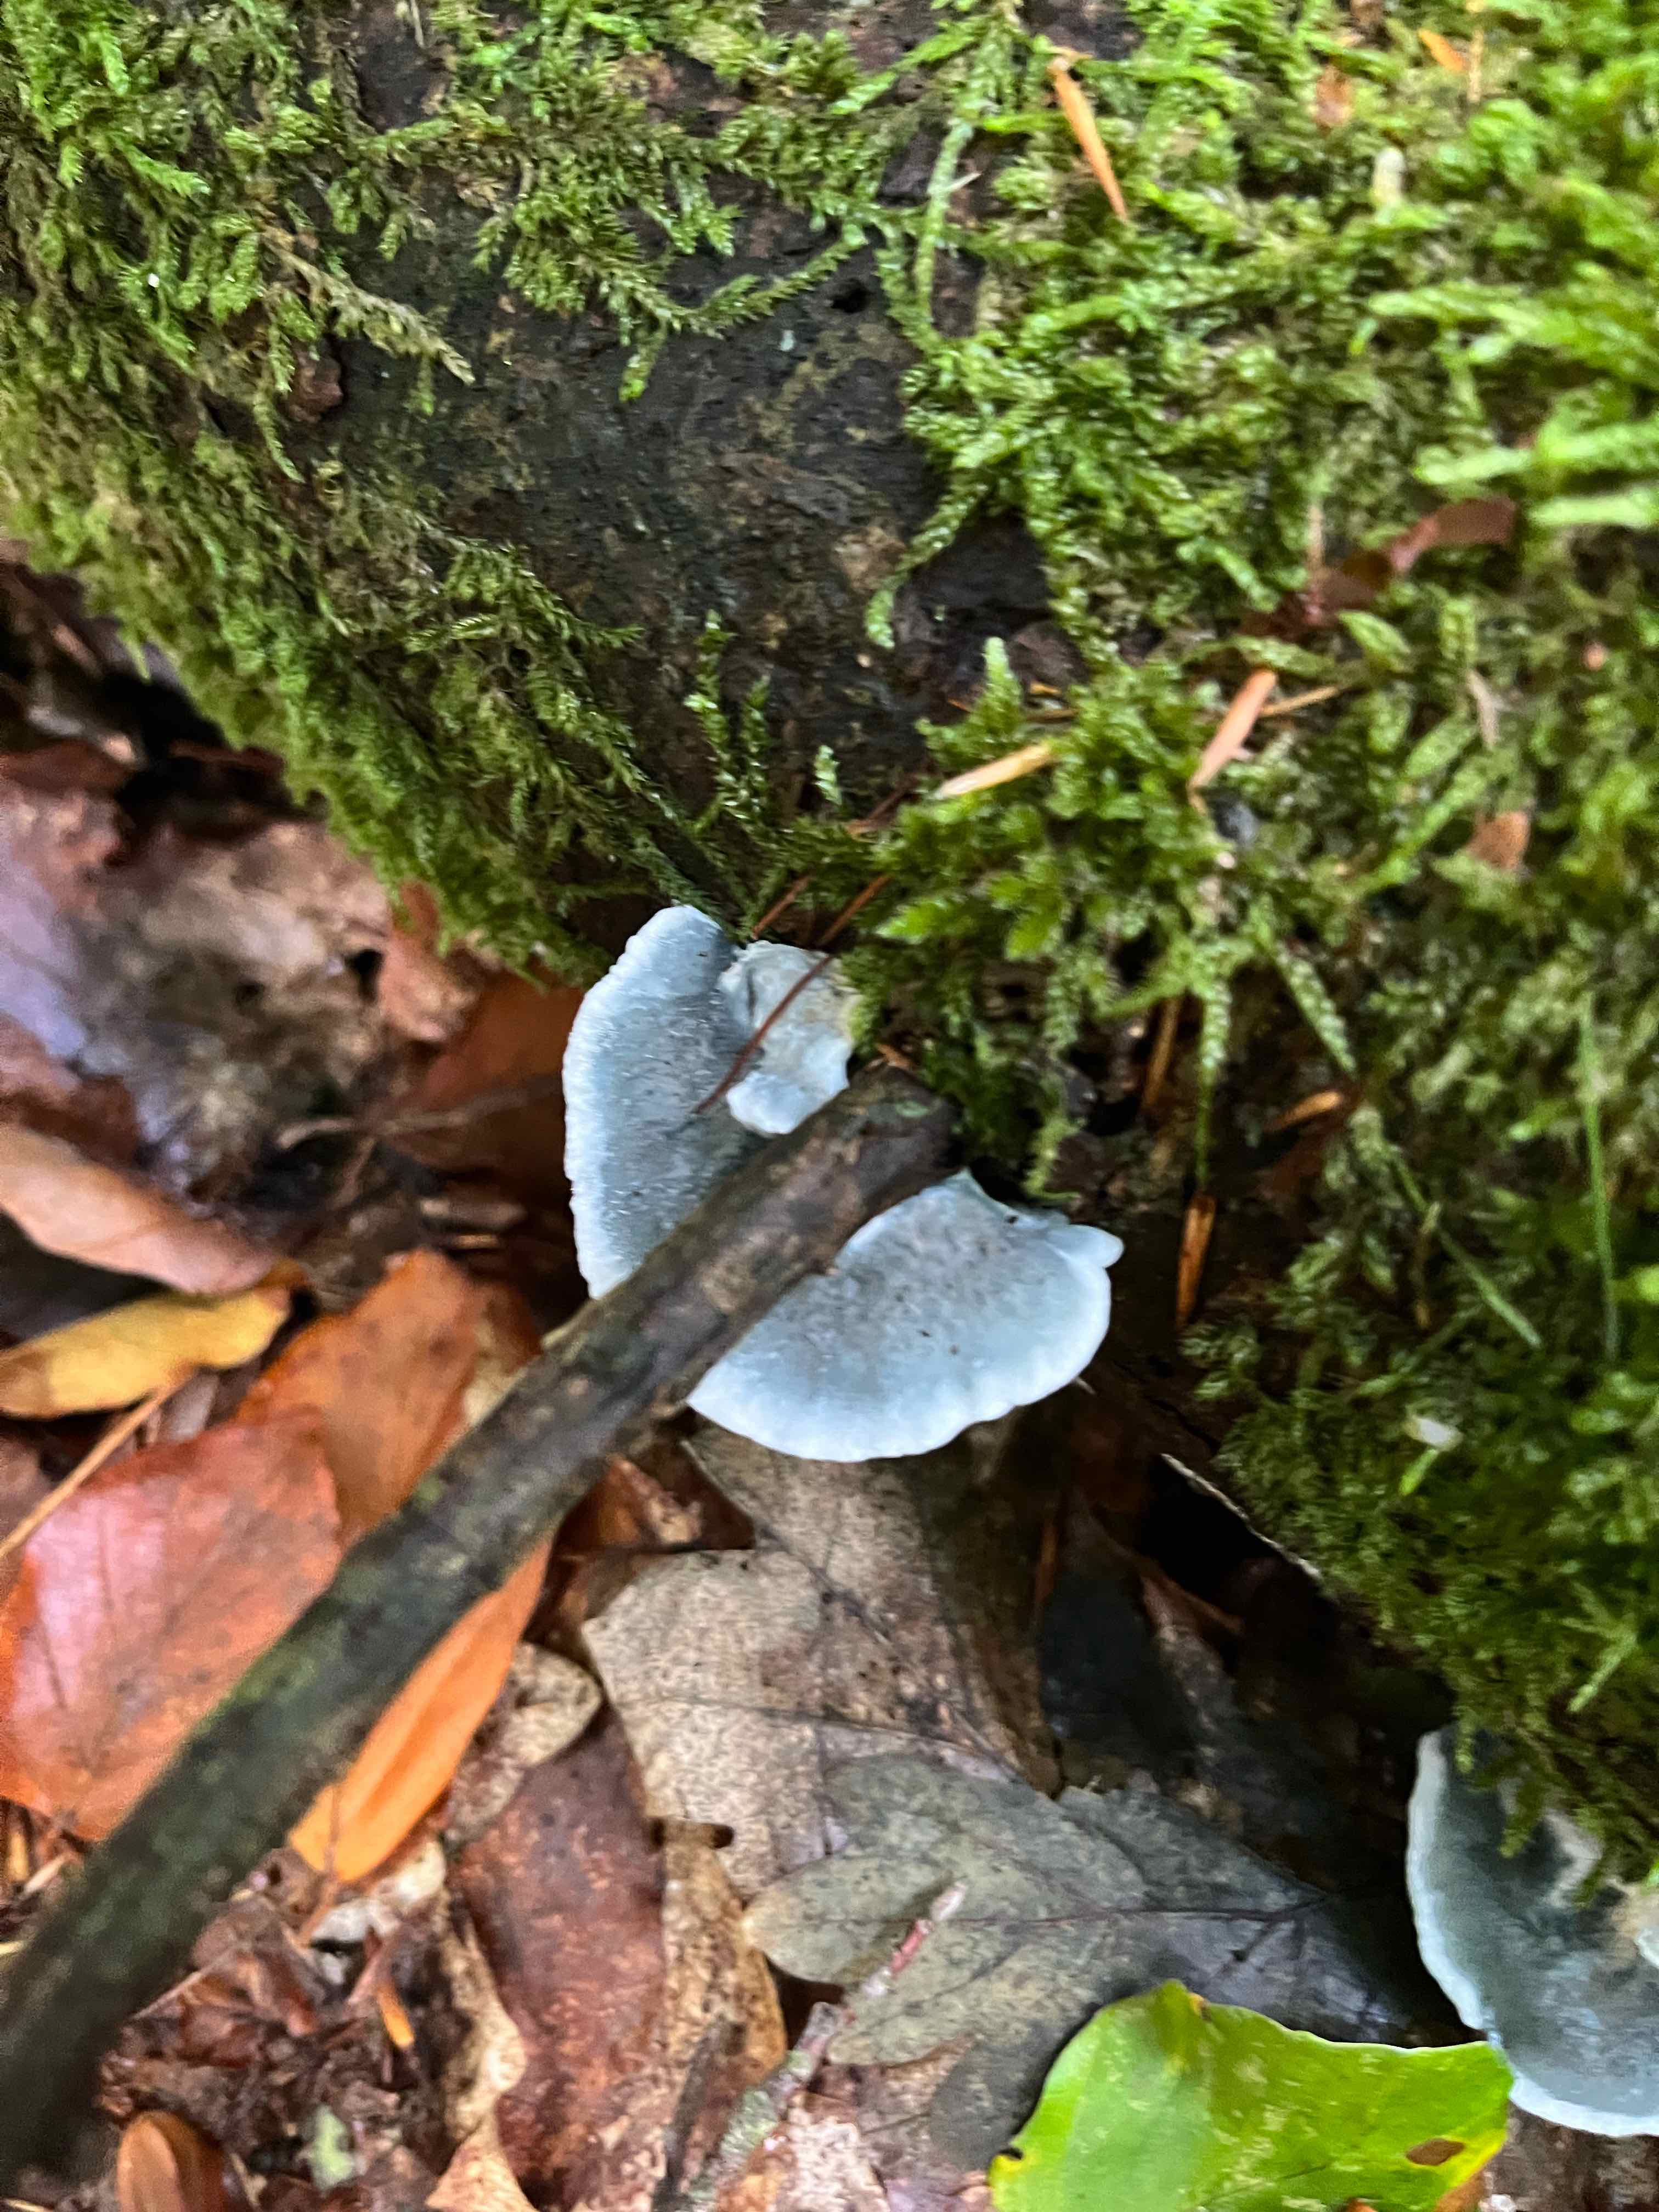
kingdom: Fungi
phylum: Basidiomycota
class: Agaricomycetes
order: Polyporales
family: Polyporaceae
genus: Cyanosporus
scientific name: Cyanosporus caesius
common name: blålig kødporesvamp
